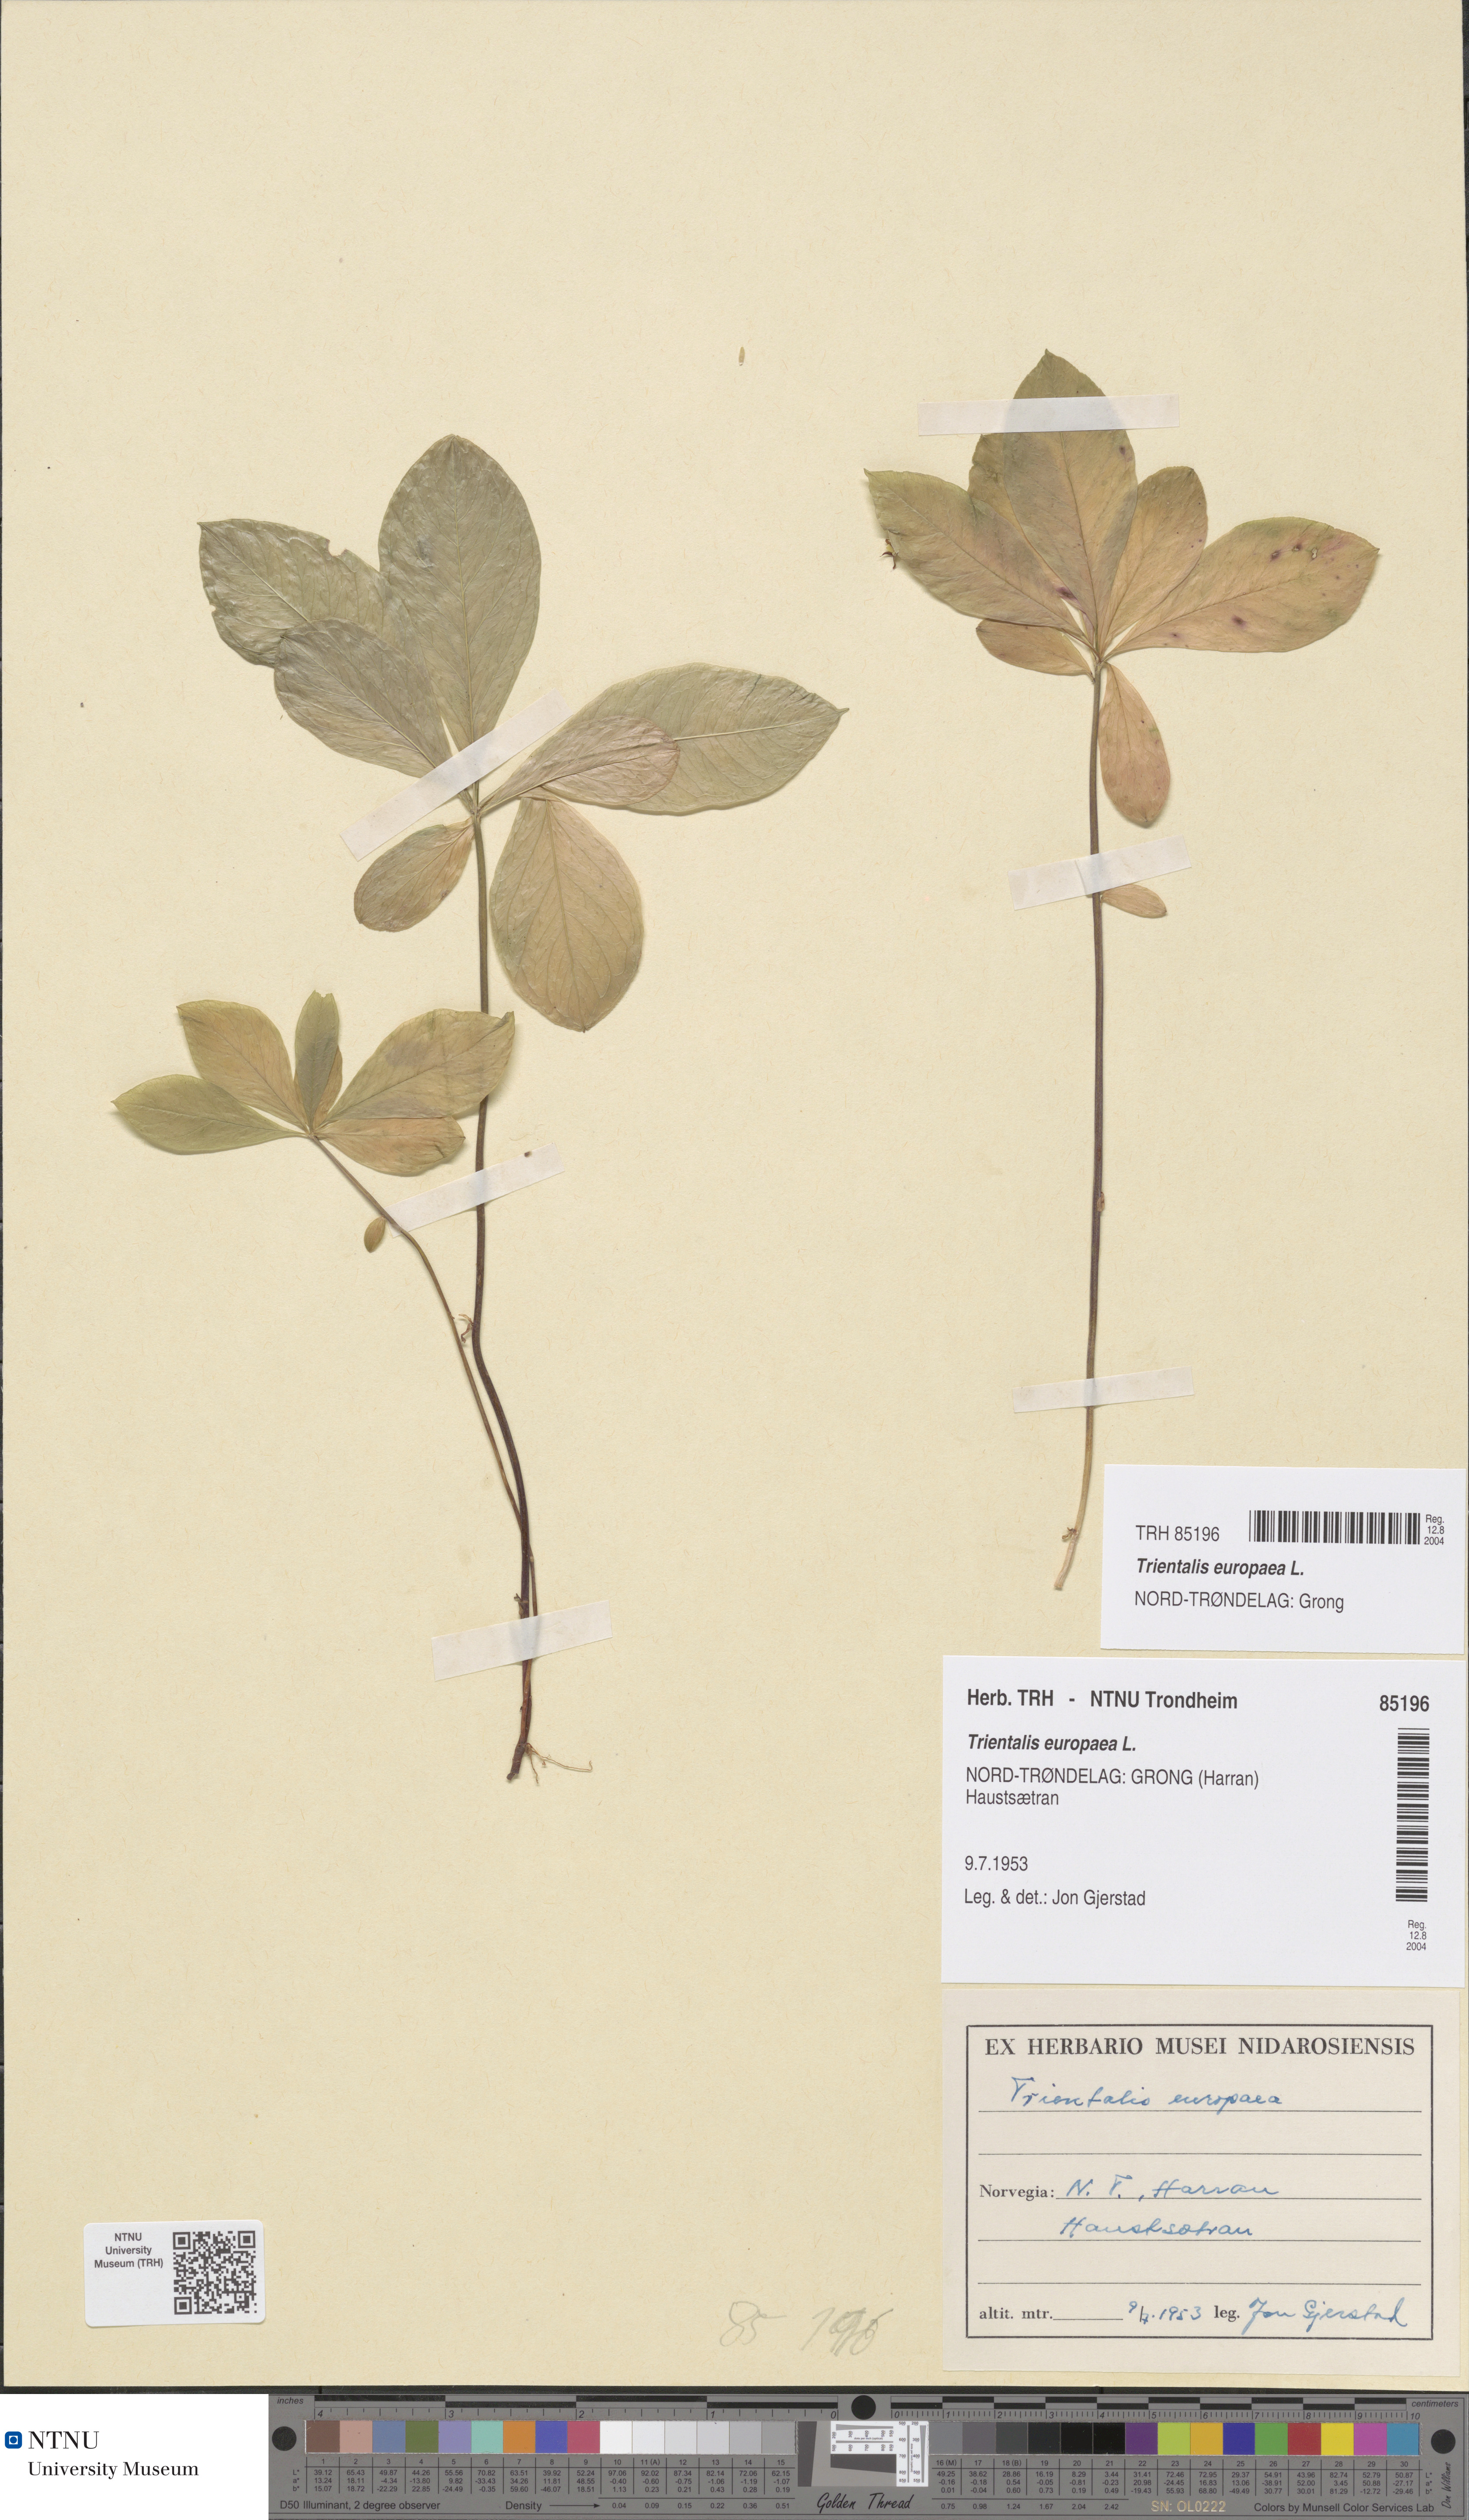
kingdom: Plantae
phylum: Tracheophyta
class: Magnoliopsida
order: Ericales
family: Primulaceae
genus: Lysimachia
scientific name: Lysimachia europaea
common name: Arctic starflower
